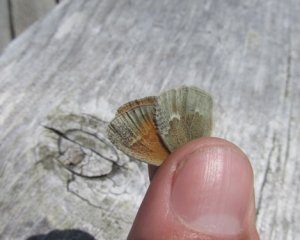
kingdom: Animalia
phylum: Arthropoda
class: Insecta
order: Lepidoptera
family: Nymphalidae
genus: Coenonympha
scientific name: Coenonympha tullia
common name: Large Heath
